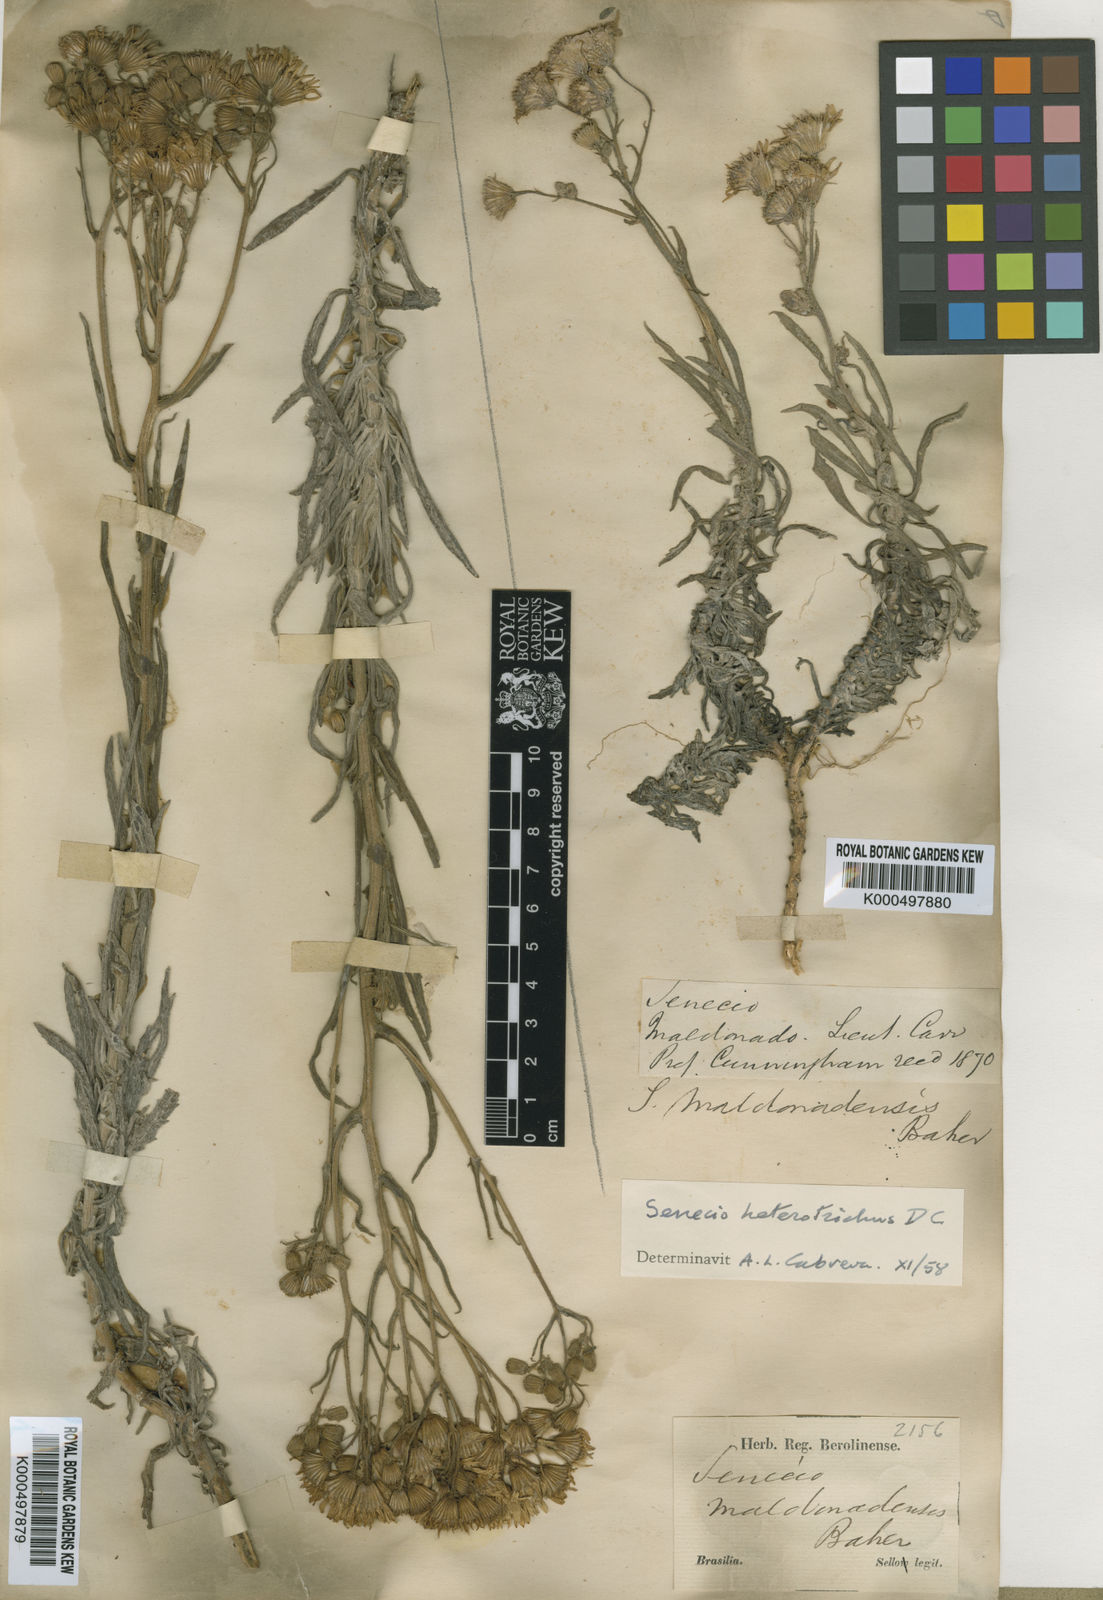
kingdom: Plantae
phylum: Tracheophyta
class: Magnoliopsida
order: Asterales
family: Asteraceae
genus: Senecio
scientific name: Senecio heterotrichus
